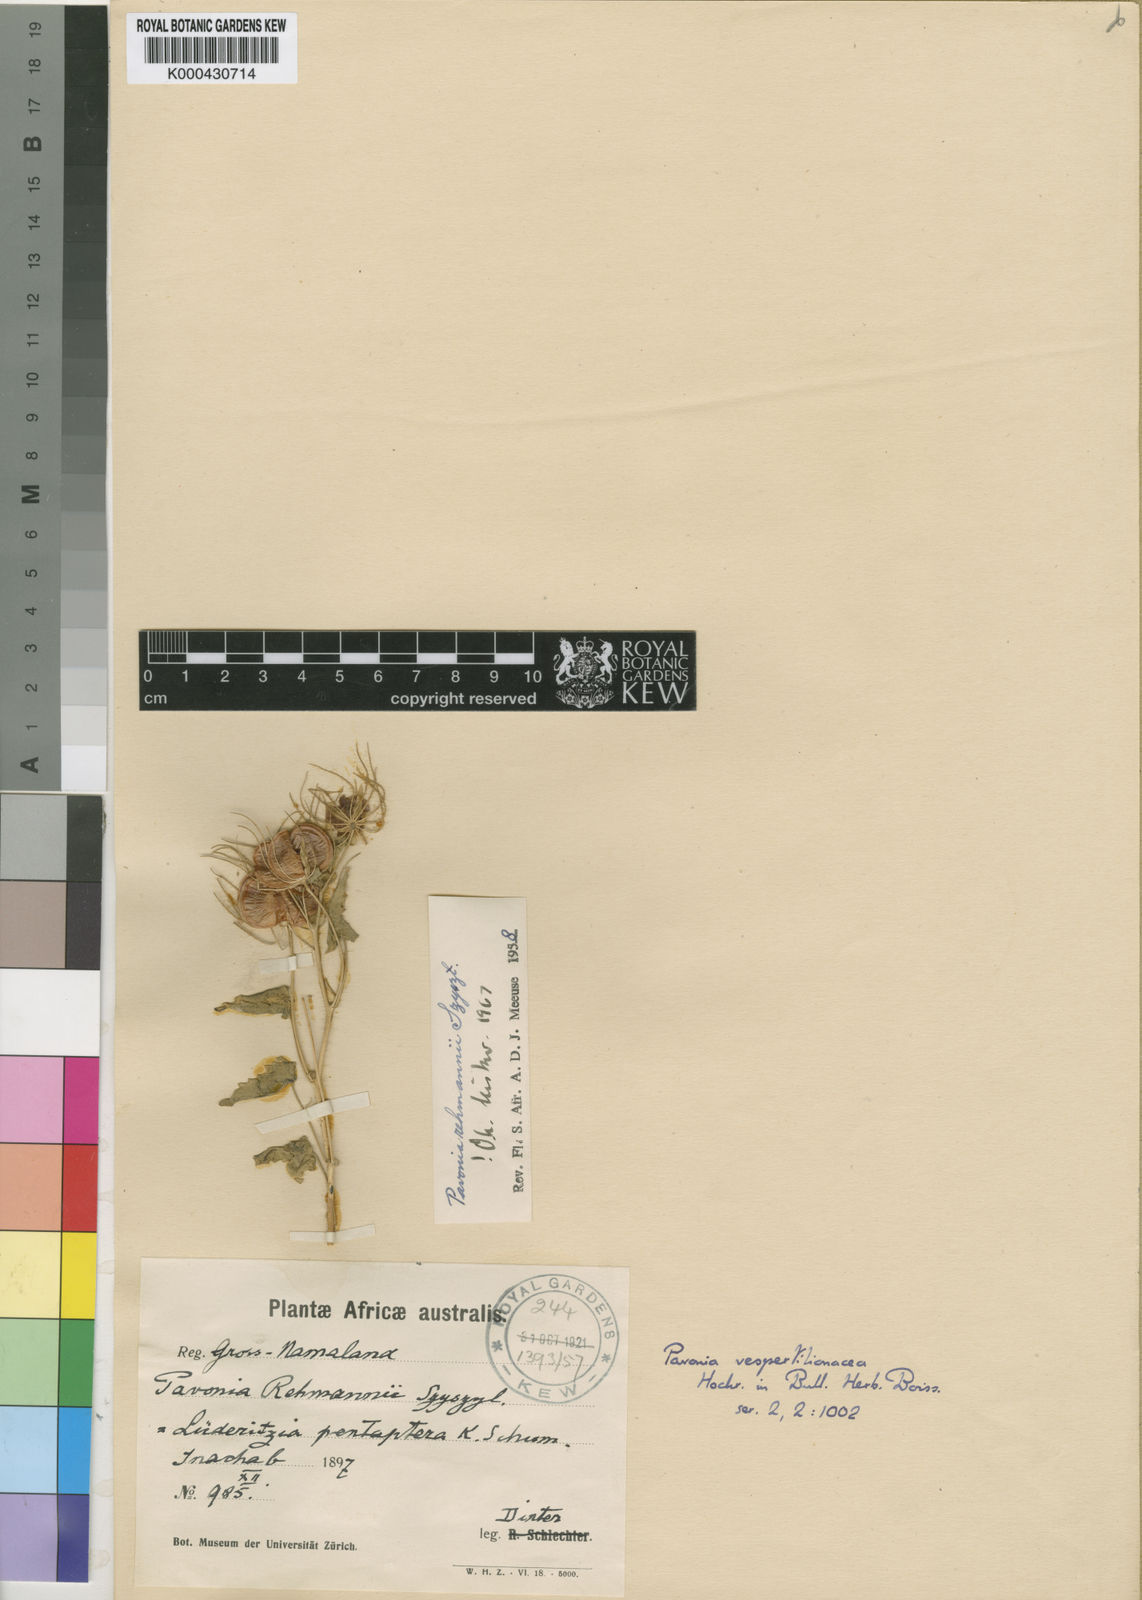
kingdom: Plantae
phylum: Tracheophyta
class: Magnoliopsida
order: Malvales
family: Malvaceae
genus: Pavonia
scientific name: Pavonia rehmannii
